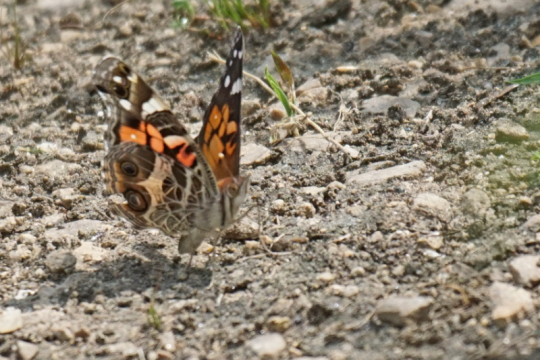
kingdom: Animalia
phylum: Arthropoda
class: Insecta
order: Lepidoptera
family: Nymphalidae
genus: Vanessa
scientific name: Vanessa virginiensis
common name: American Lady
